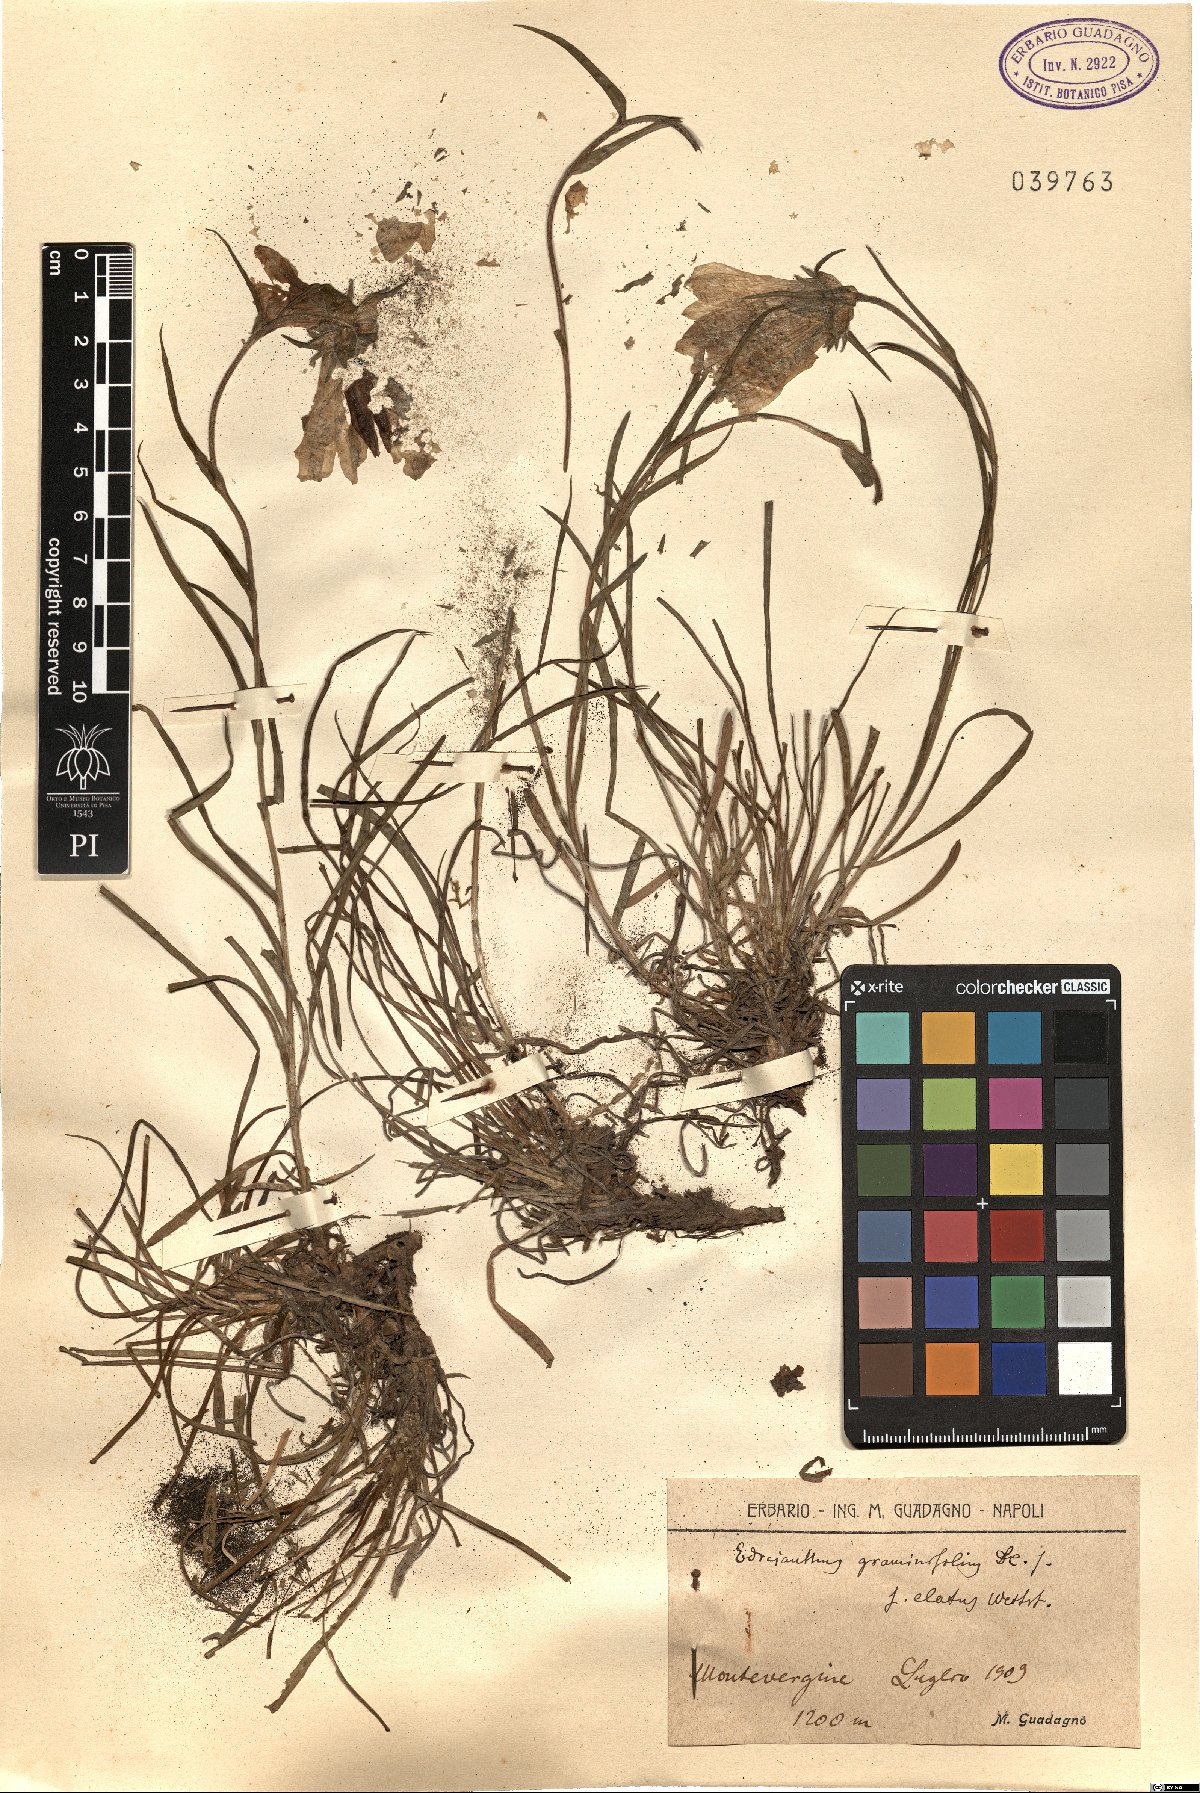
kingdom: Plantae
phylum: Tracheophyta
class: Magnoliopsida
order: Asterales
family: Campanulaceae
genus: Edraianthus
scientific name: Edraianthus graminifolius
